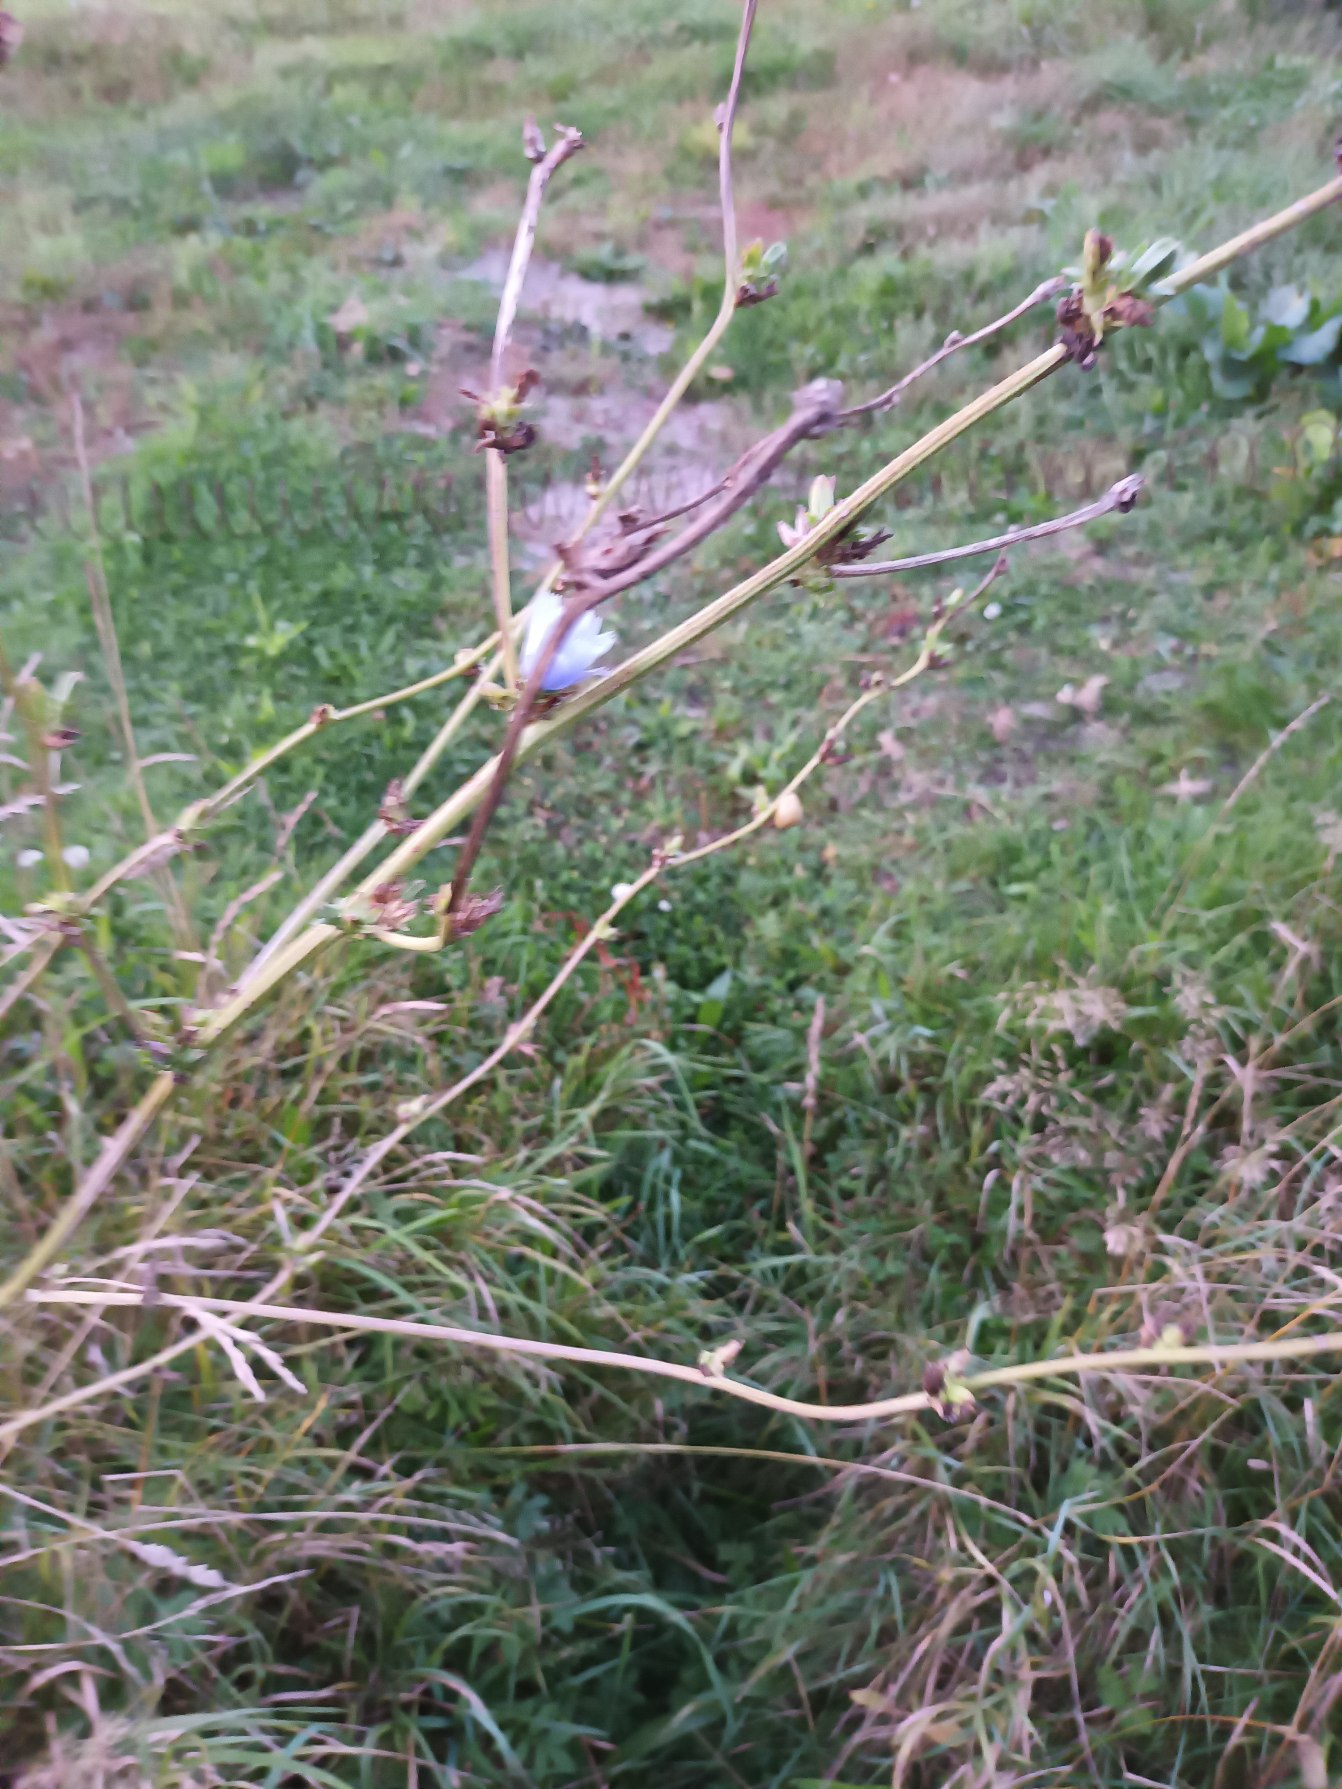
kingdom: Plantae
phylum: Tracheophyta
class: Magnoliopsida
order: Asterales
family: Asteraceae
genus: Cichorium
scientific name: Cichorium intybus
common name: Cikorie
